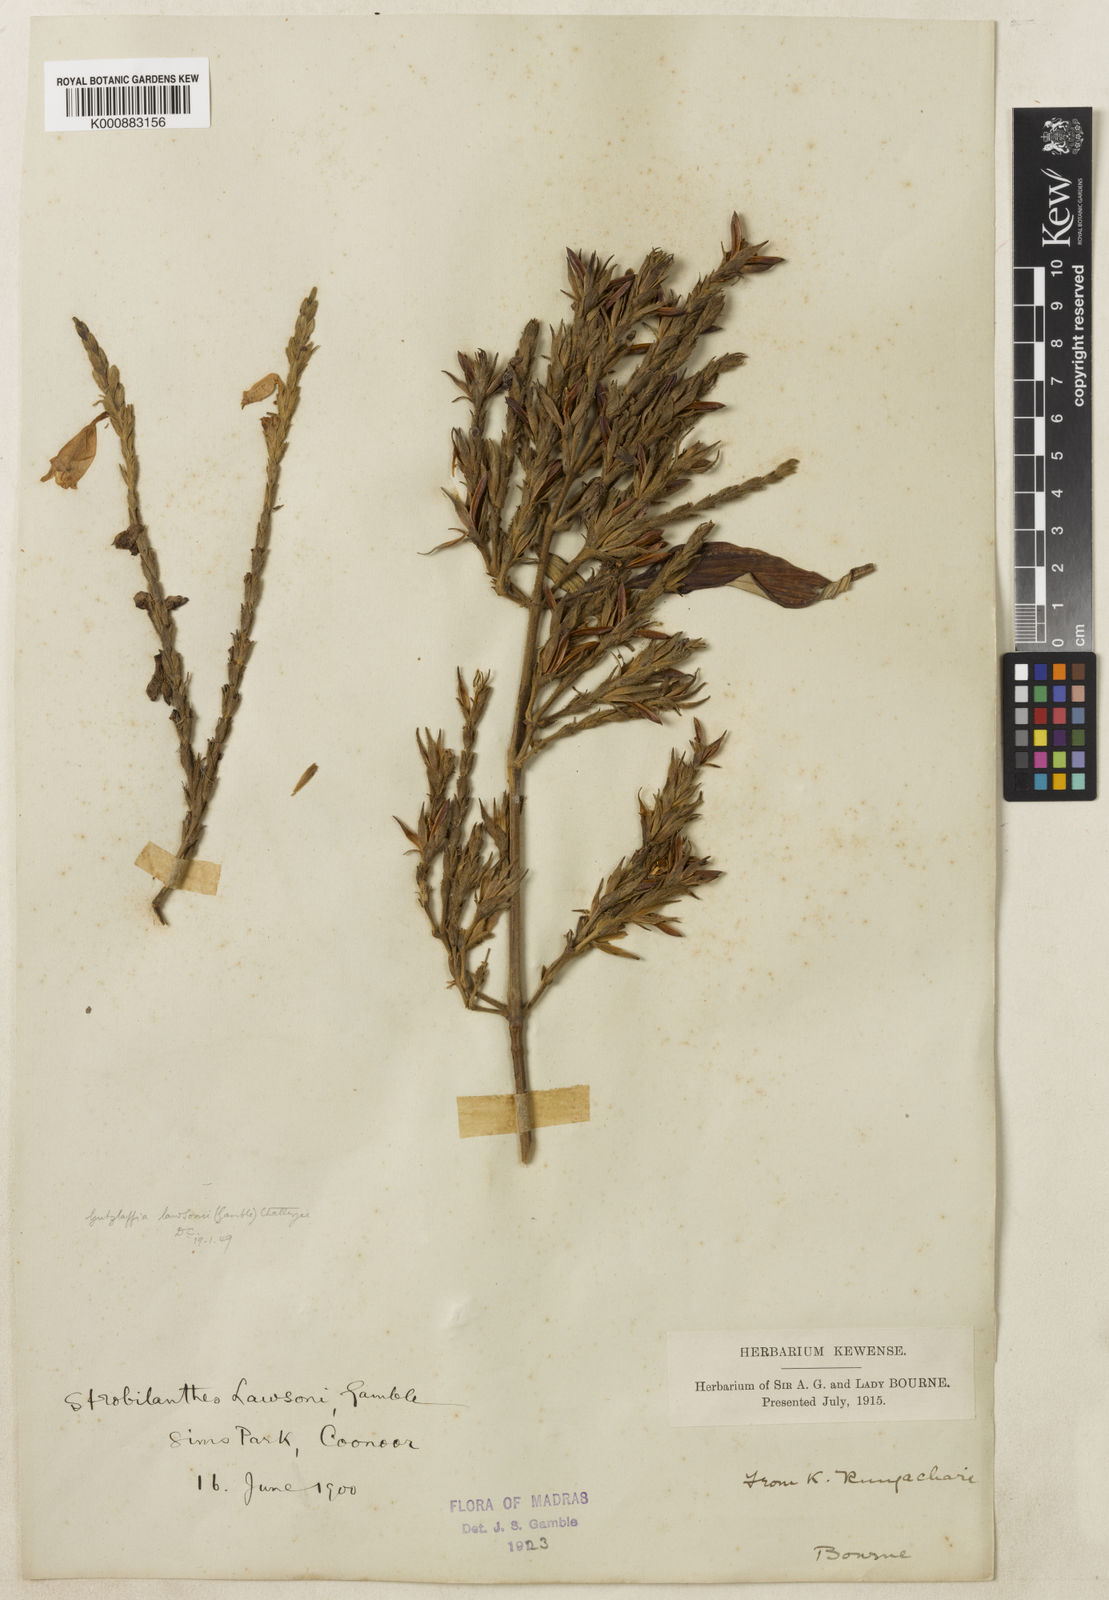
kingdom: Plantae
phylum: Tracheophyta
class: Magnoliopsida
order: Lamiales
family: Acanthaceae
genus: Strobilanthes
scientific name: Strobilanthes
